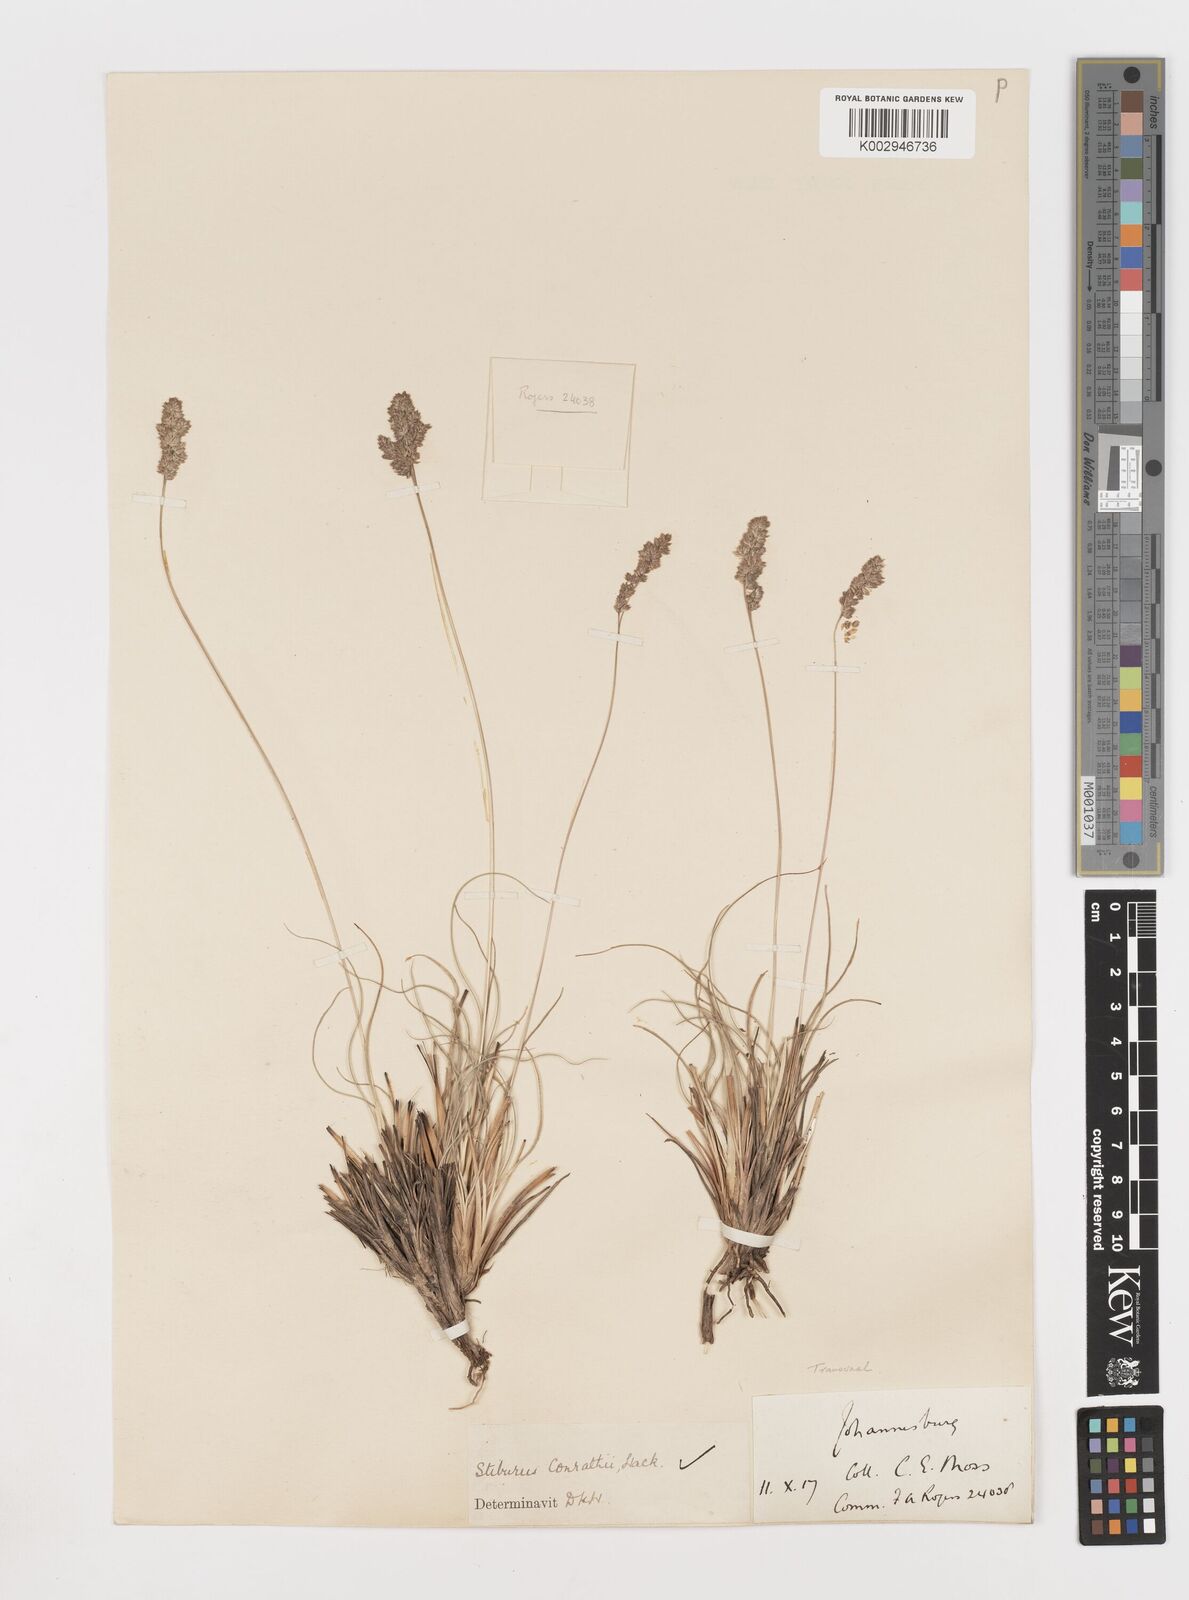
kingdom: Plantae
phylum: Tracheophyta
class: Liliopsida
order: Poales
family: Poaceae
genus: Stiburus
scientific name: Stiburus conrathii
